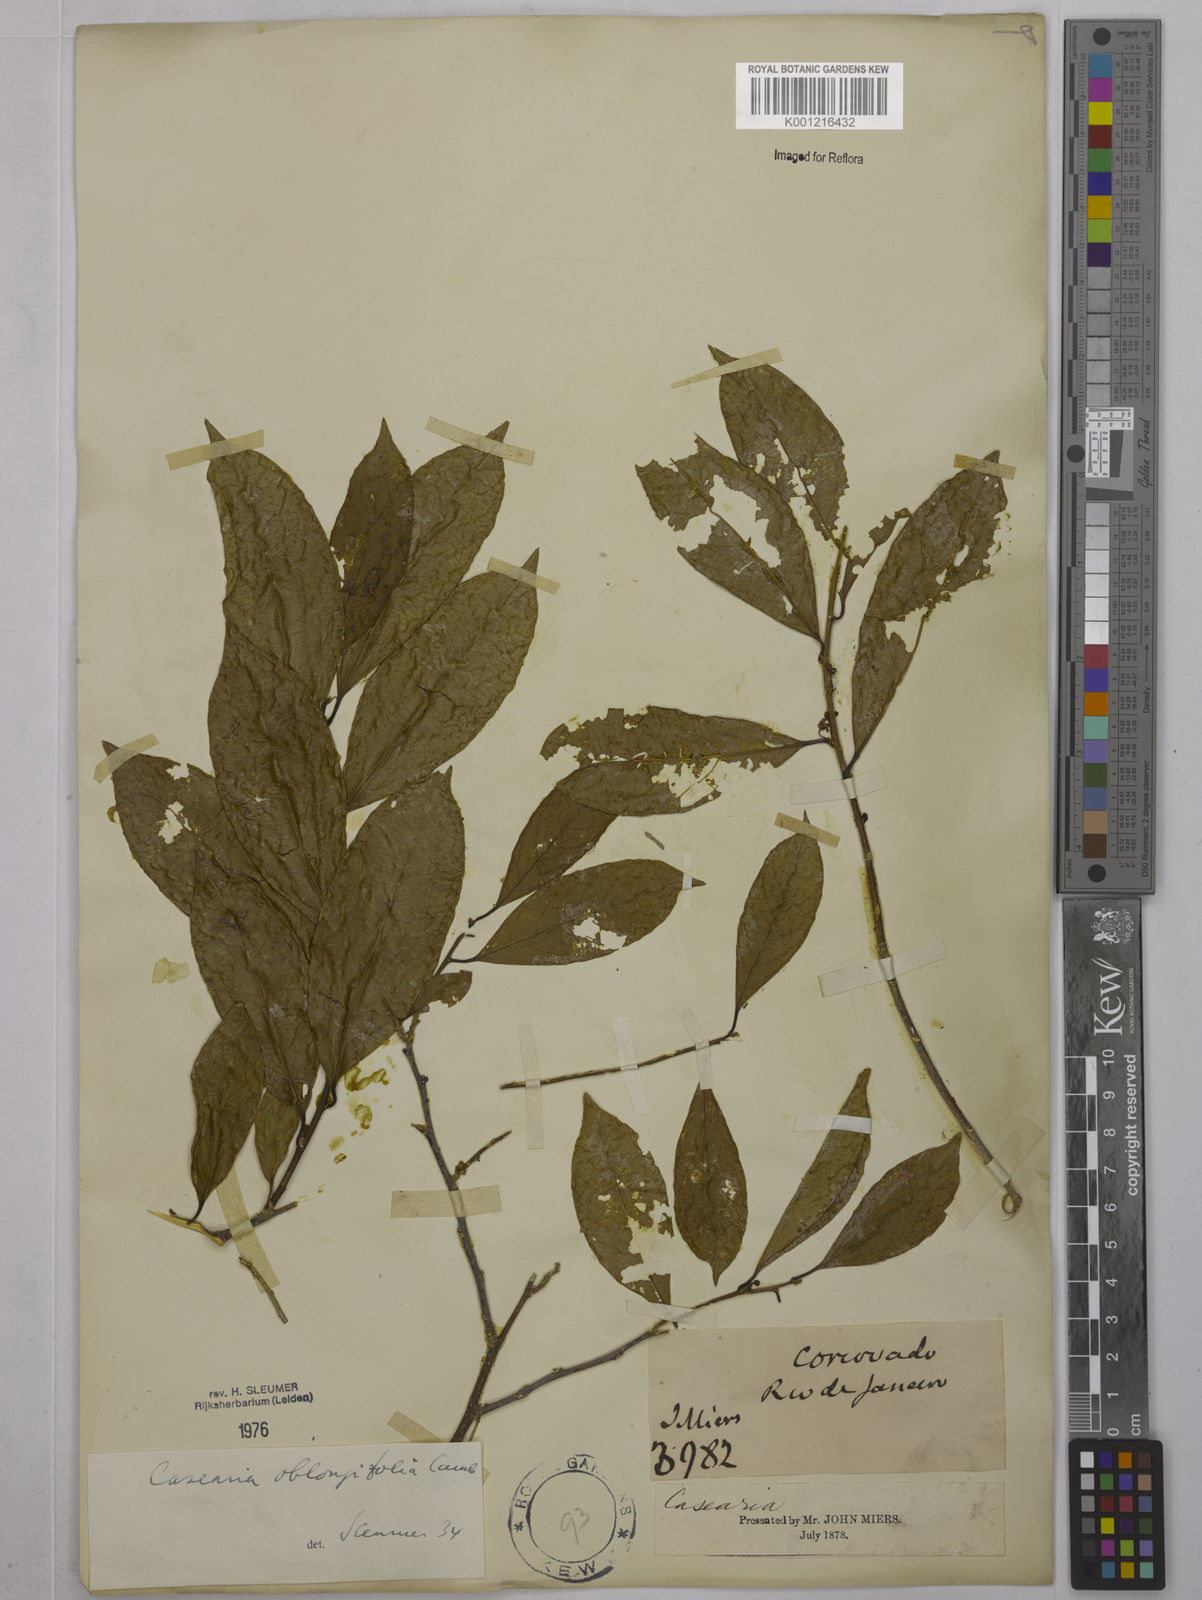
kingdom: Plantae
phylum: Tracheophyta
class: Magnoliopsida
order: Malpighiales
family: Salicaceae
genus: Casearia
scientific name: Casearia oblongifolia
